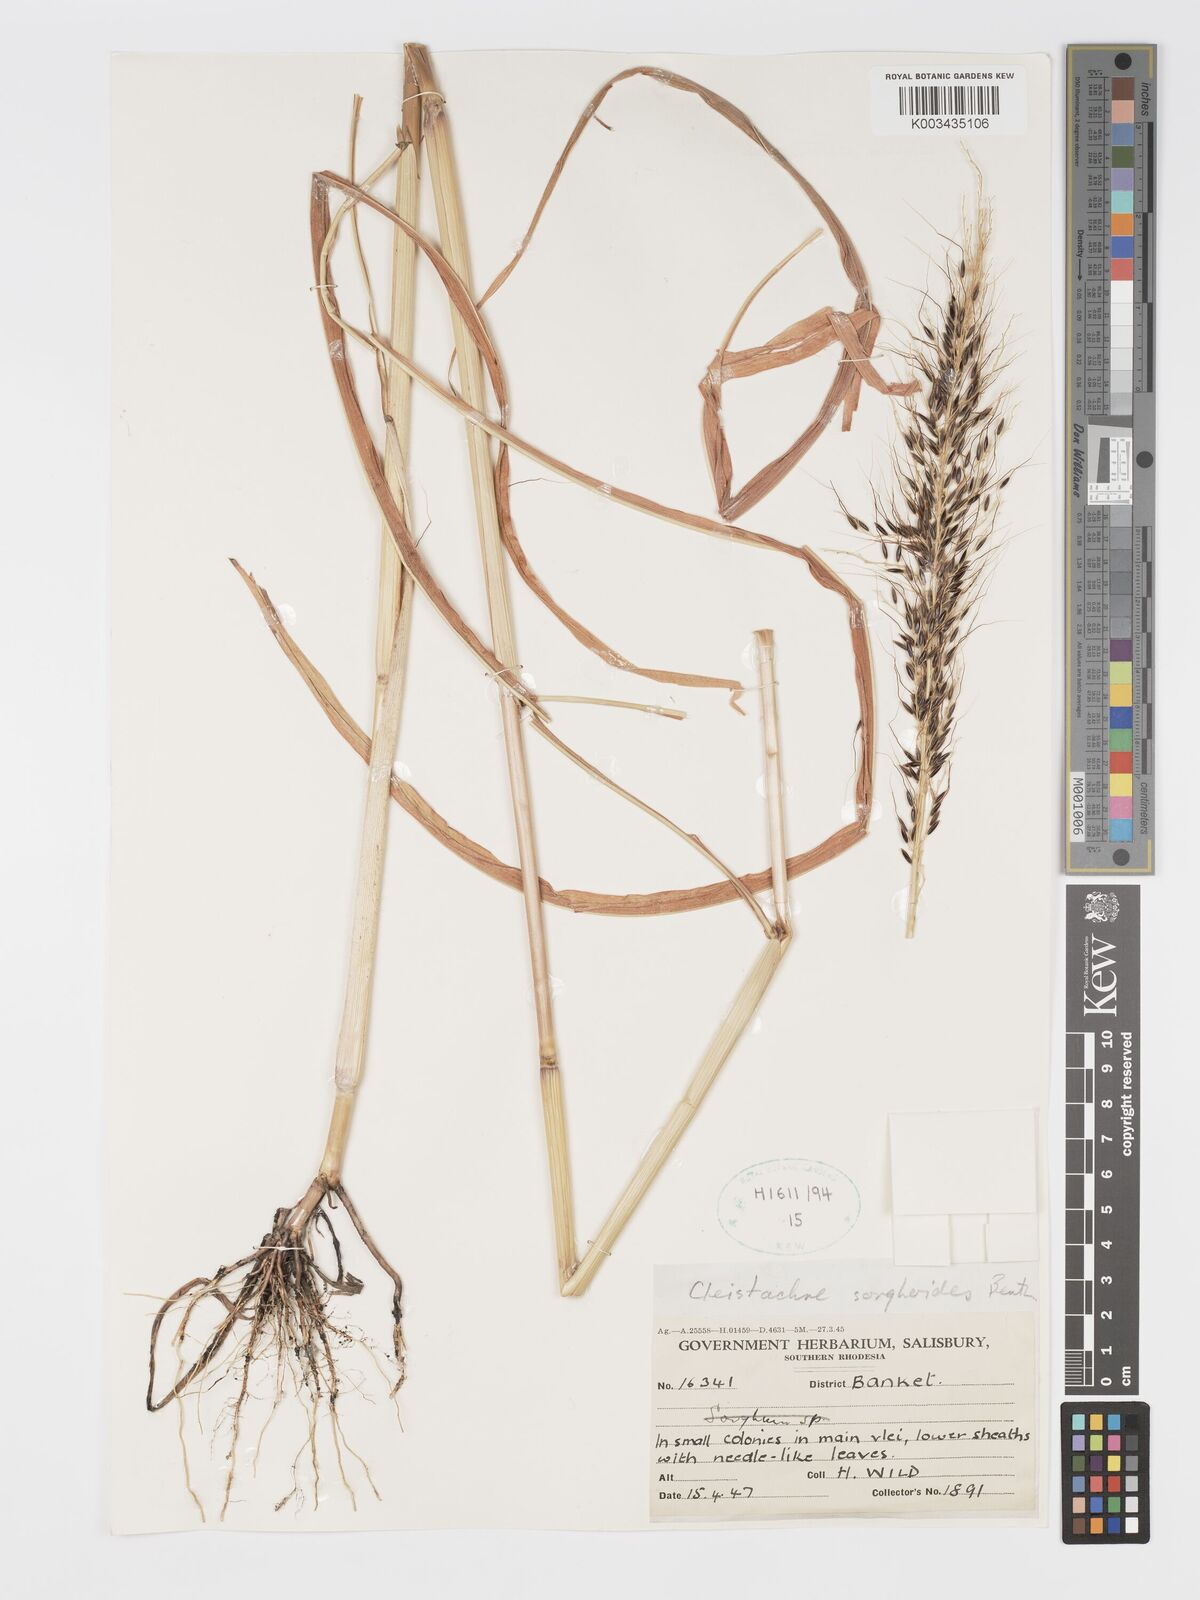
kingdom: Plantae
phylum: Tracheophyta
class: Liliopsida
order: Poales
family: Poaceae
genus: Cleistachne
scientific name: Cleistachne sorghoides
